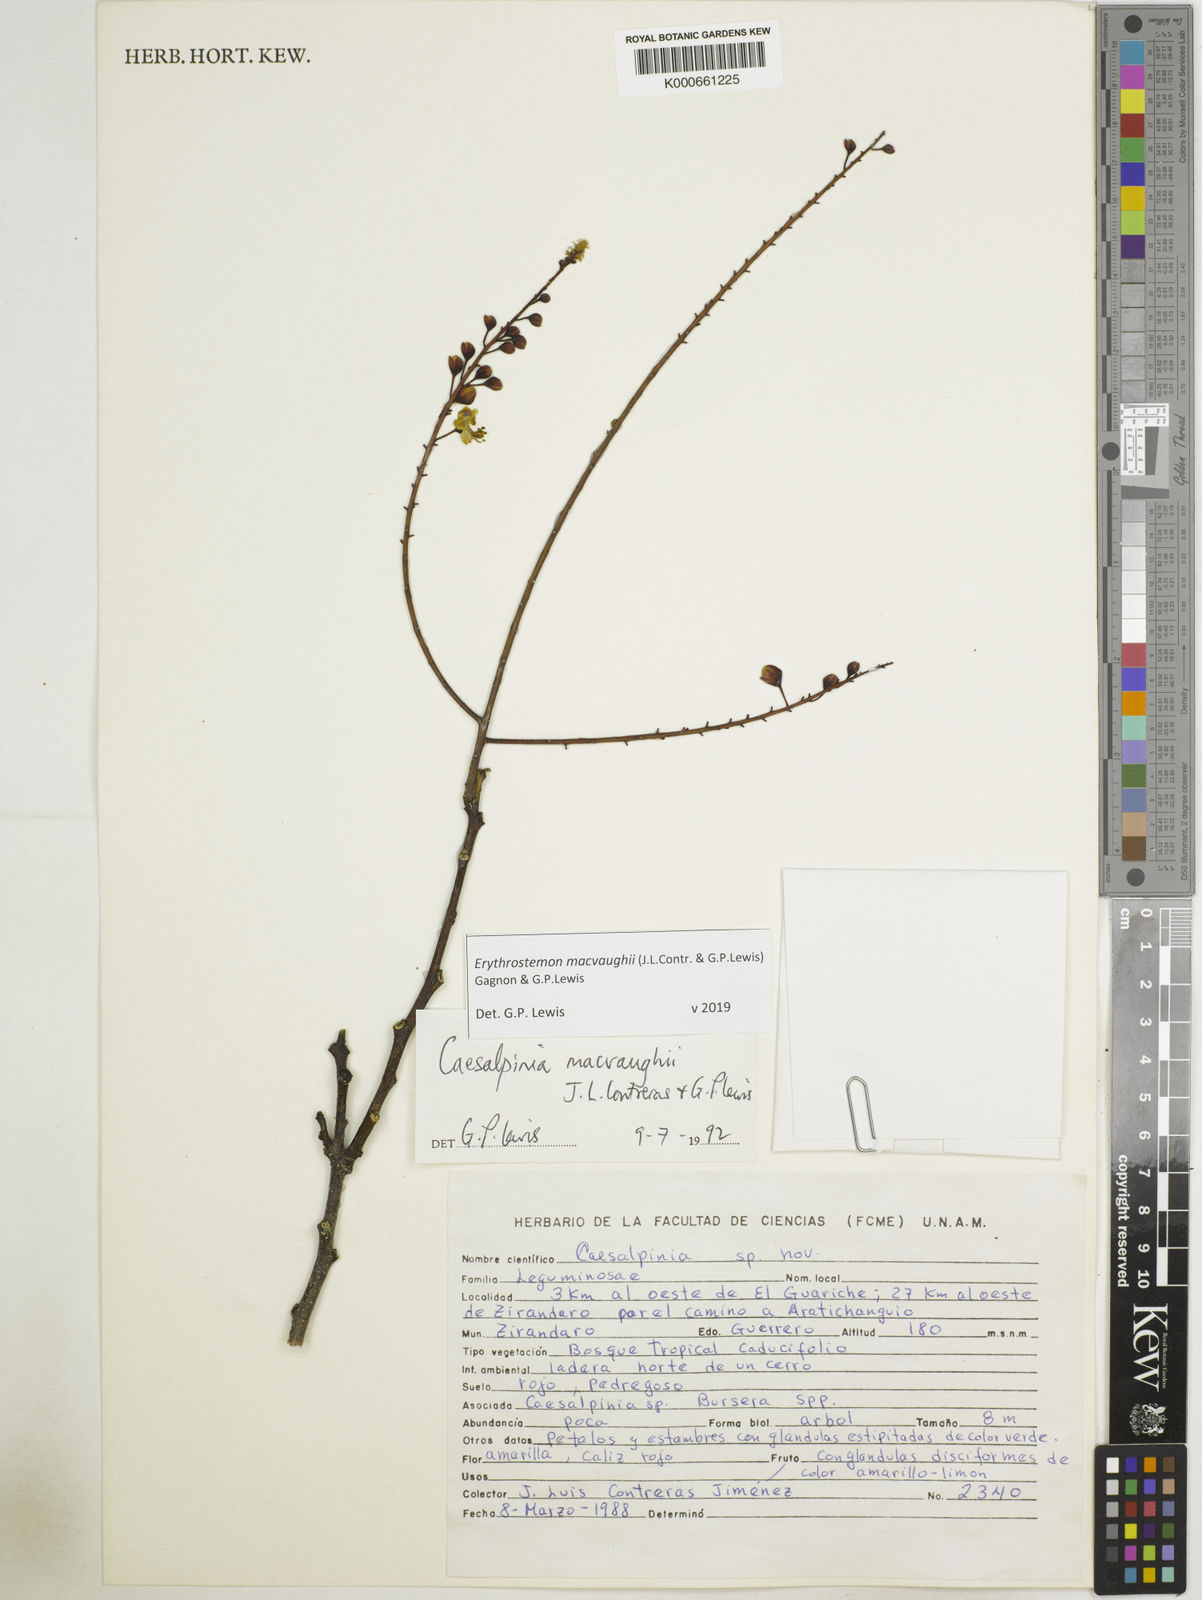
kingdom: Plantae
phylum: Tracheophyta
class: Magnoliopsida
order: Fabales
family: Fabaceae
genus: Erythrostemon
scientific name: Erythrostemon macvaughii
